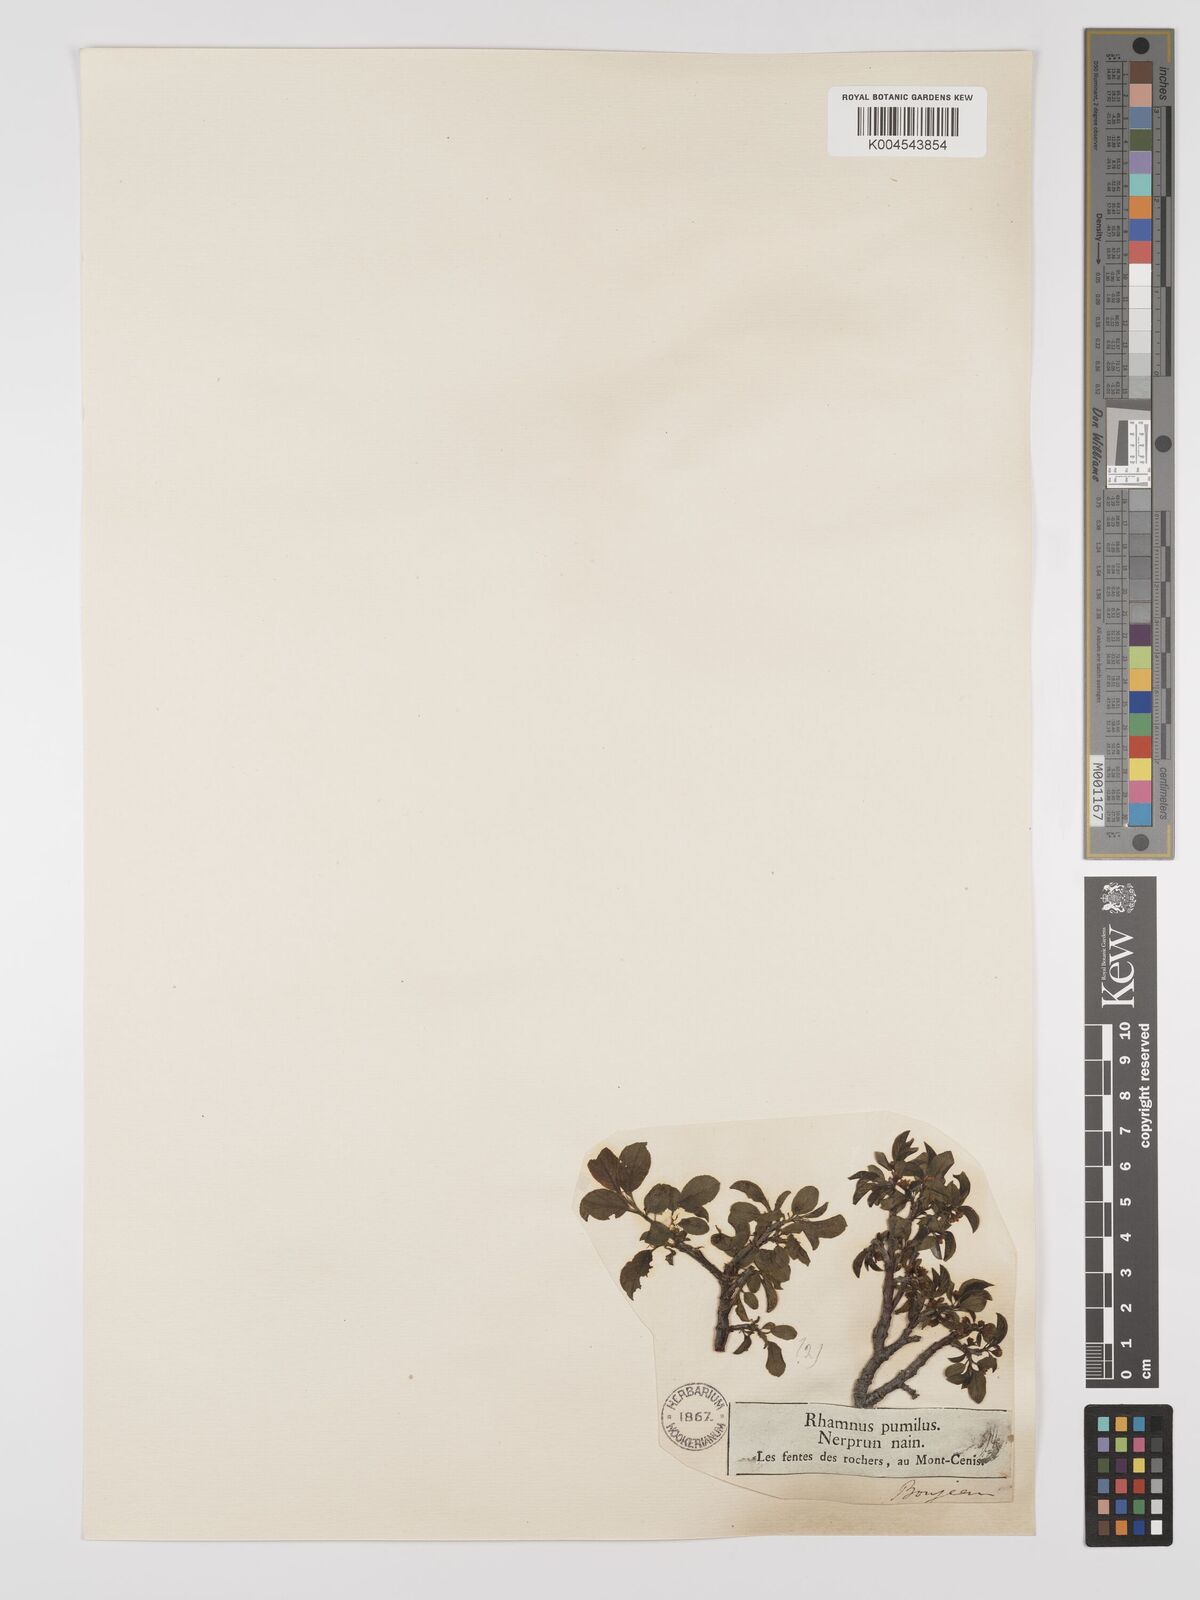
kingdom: Plantae
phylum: Tracheophyta
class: Magnoliopsida
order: Rosales
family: Rhamnaceae
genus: Rhamnus
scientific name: Rhamnus
